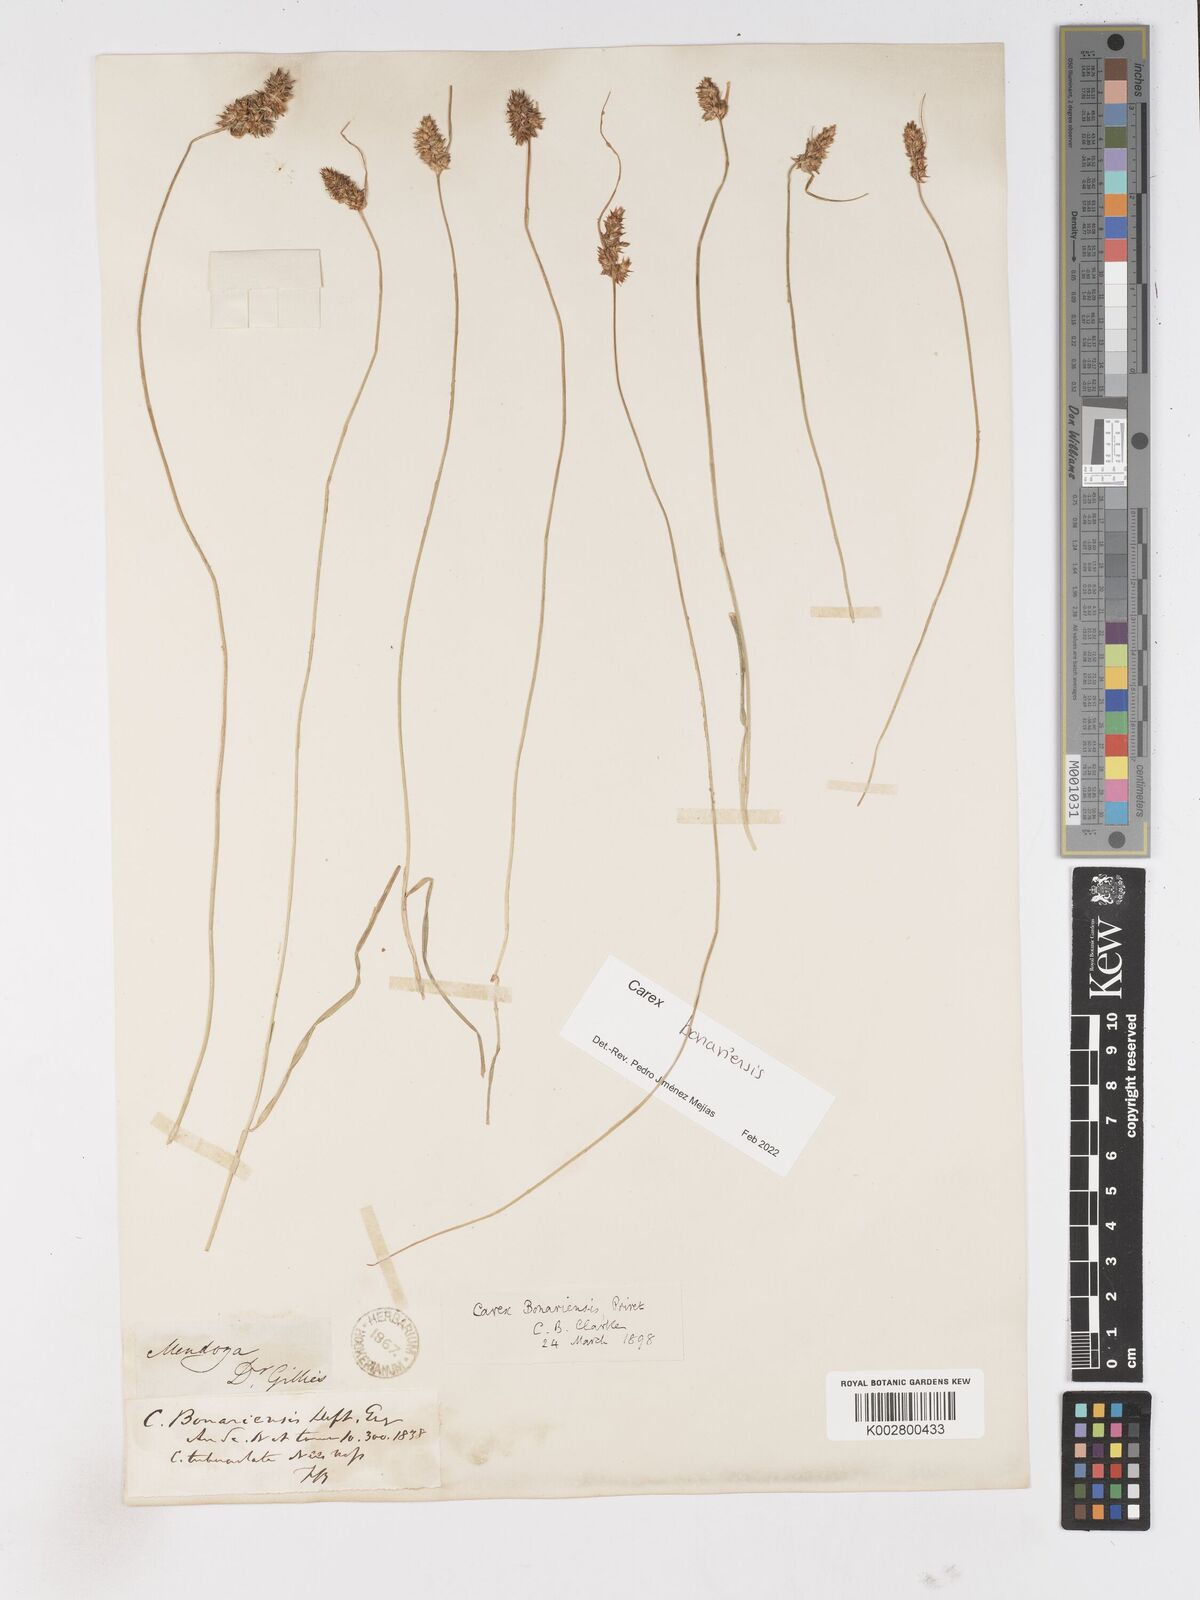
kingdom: Plantae
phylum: Tracheophyta
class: Liliopsida
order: Poales
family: Cyperaceae
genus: Carex
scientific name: Carex bonariensis
